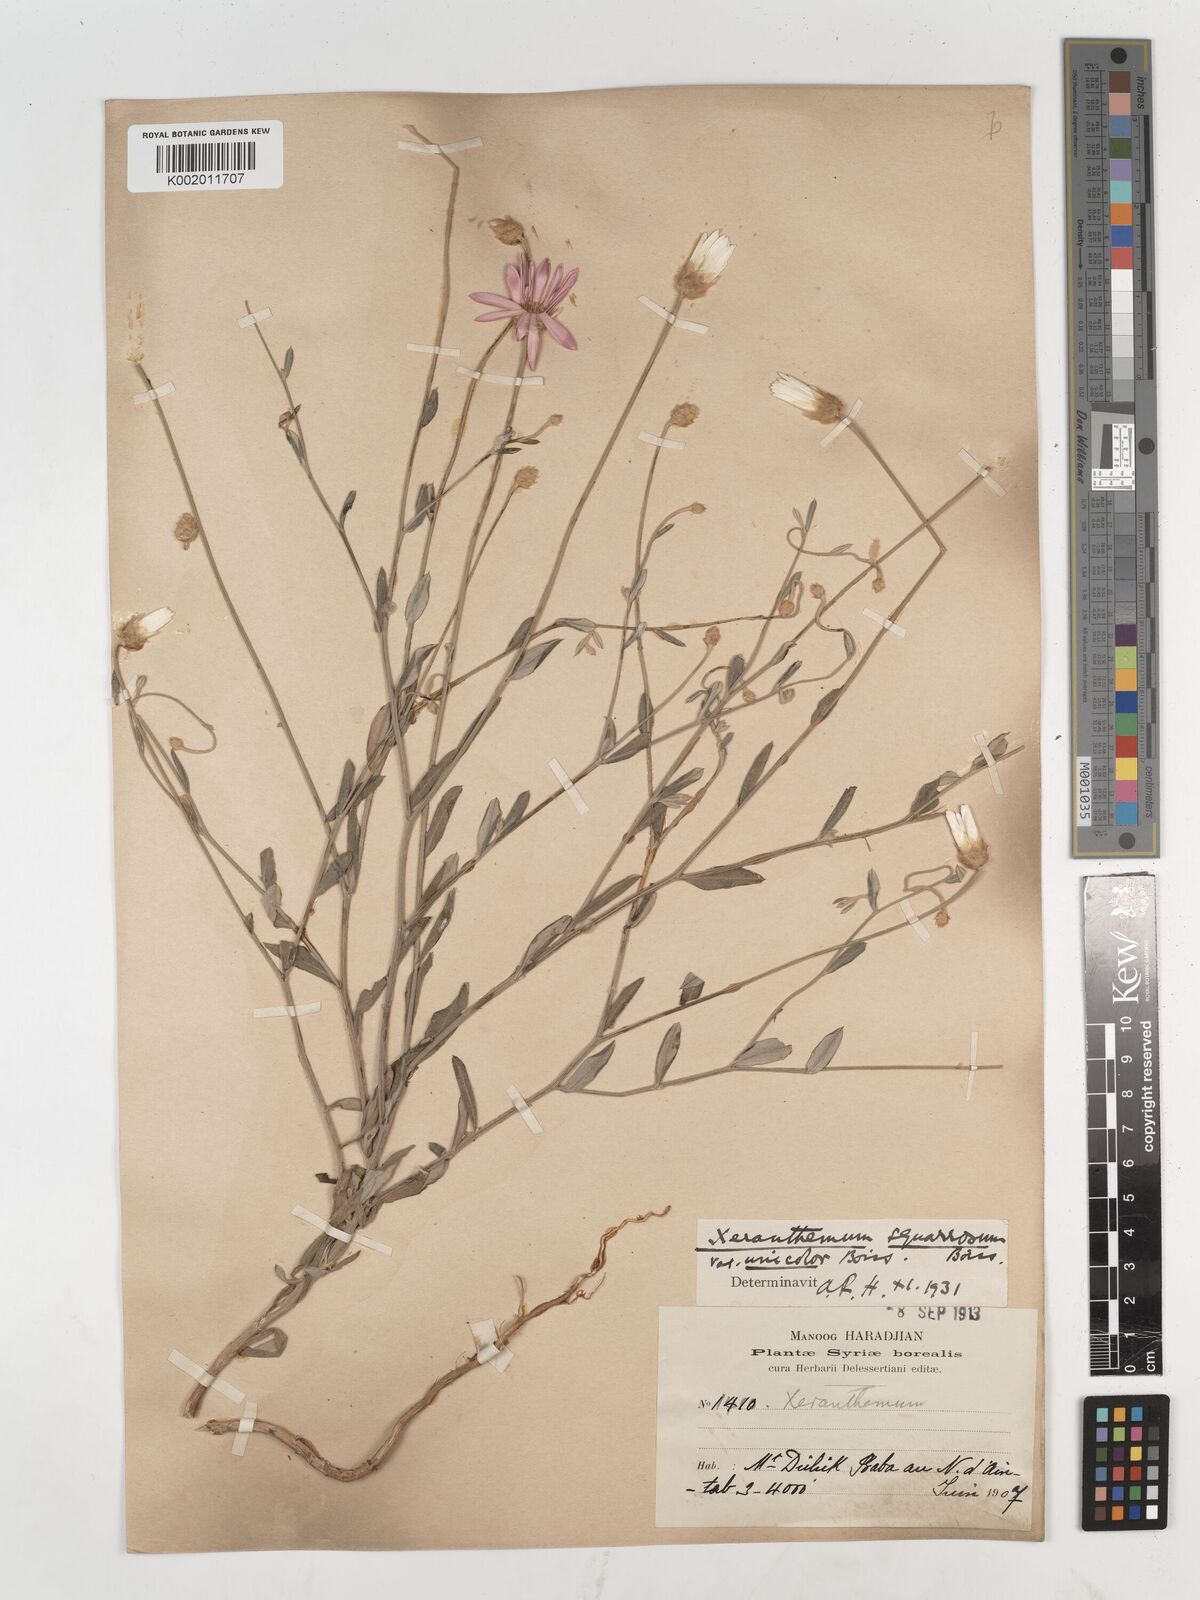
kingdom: Plantae
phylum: Tracheophyta
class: Magnoliopsida
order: Asterales
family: Asteraceae
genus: Xeranthemum
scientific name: Xeranthemum squarrosum
